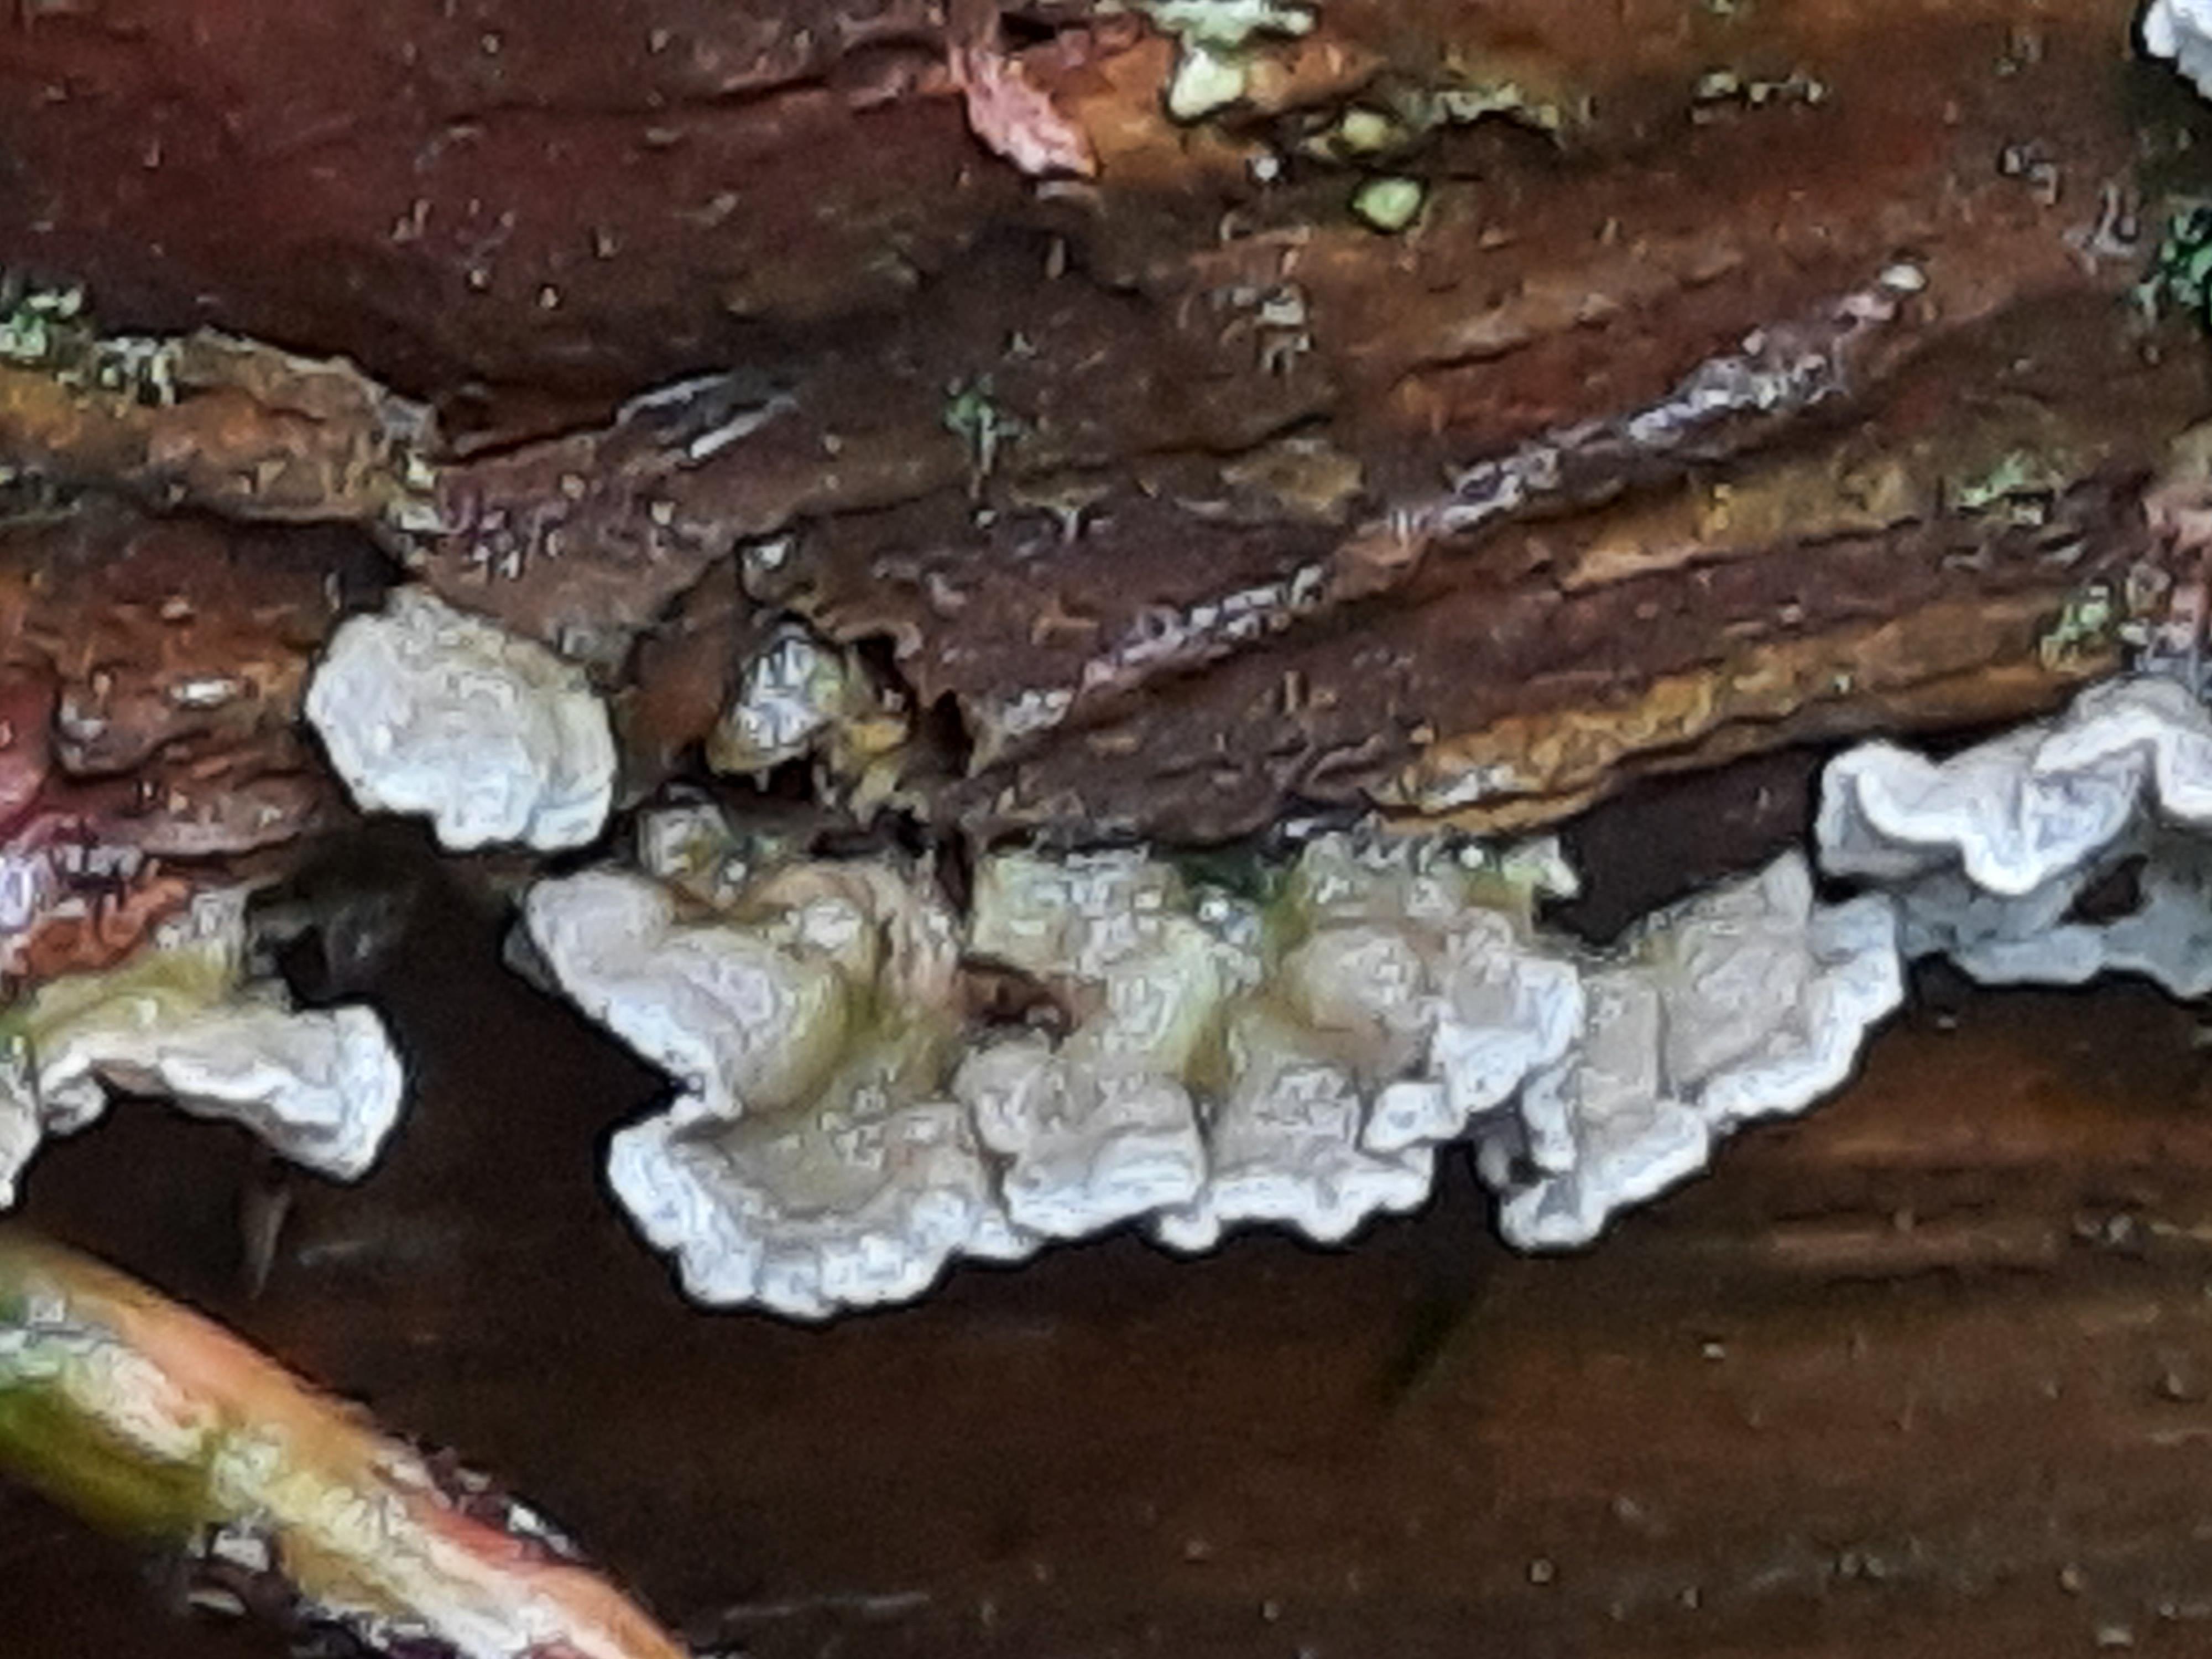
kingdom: Fungi
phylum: Basidiomycota
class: Agaricomycetes
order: Polyporales
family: Incrustoporiaceae
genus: Skeletocutis
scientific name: Skeletocutis carneogrisea
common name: rødgrå krystalporesvamp
